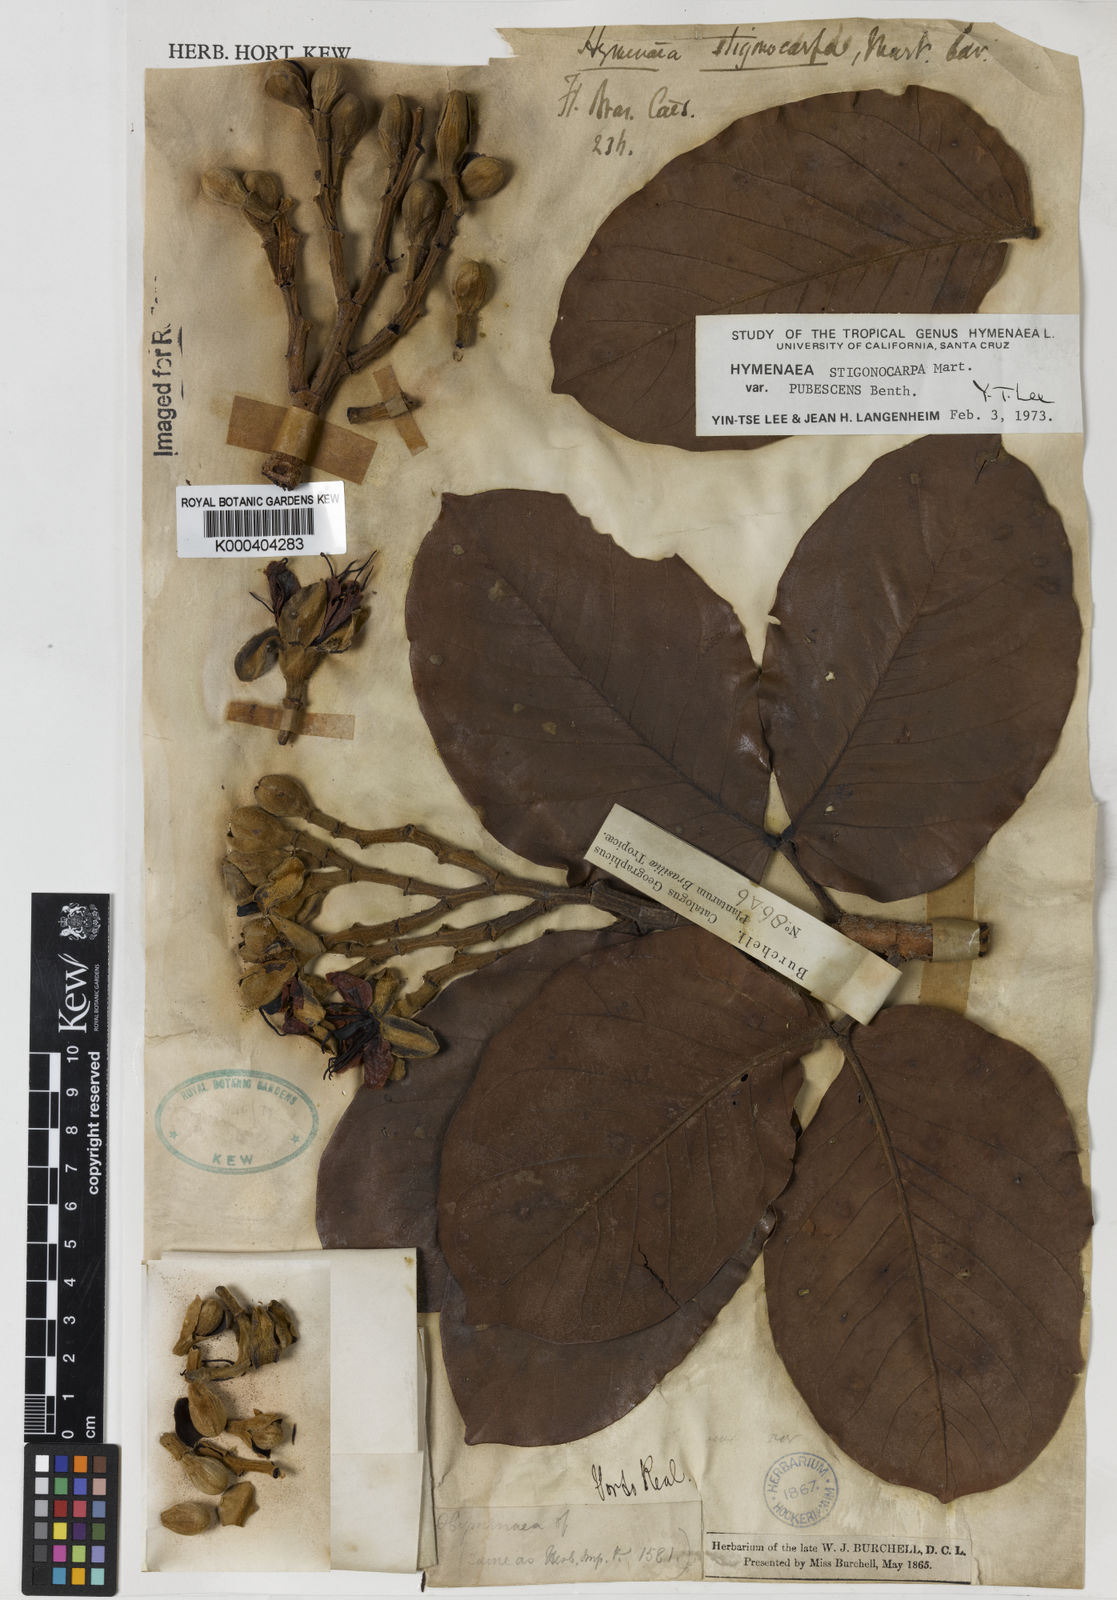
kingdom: Plantae
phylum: Tracheophyta
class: Magnoliopsida
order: Fabales
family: Fabaceae
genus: Hymenaea
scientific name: Hymenaea stigonocarpa
